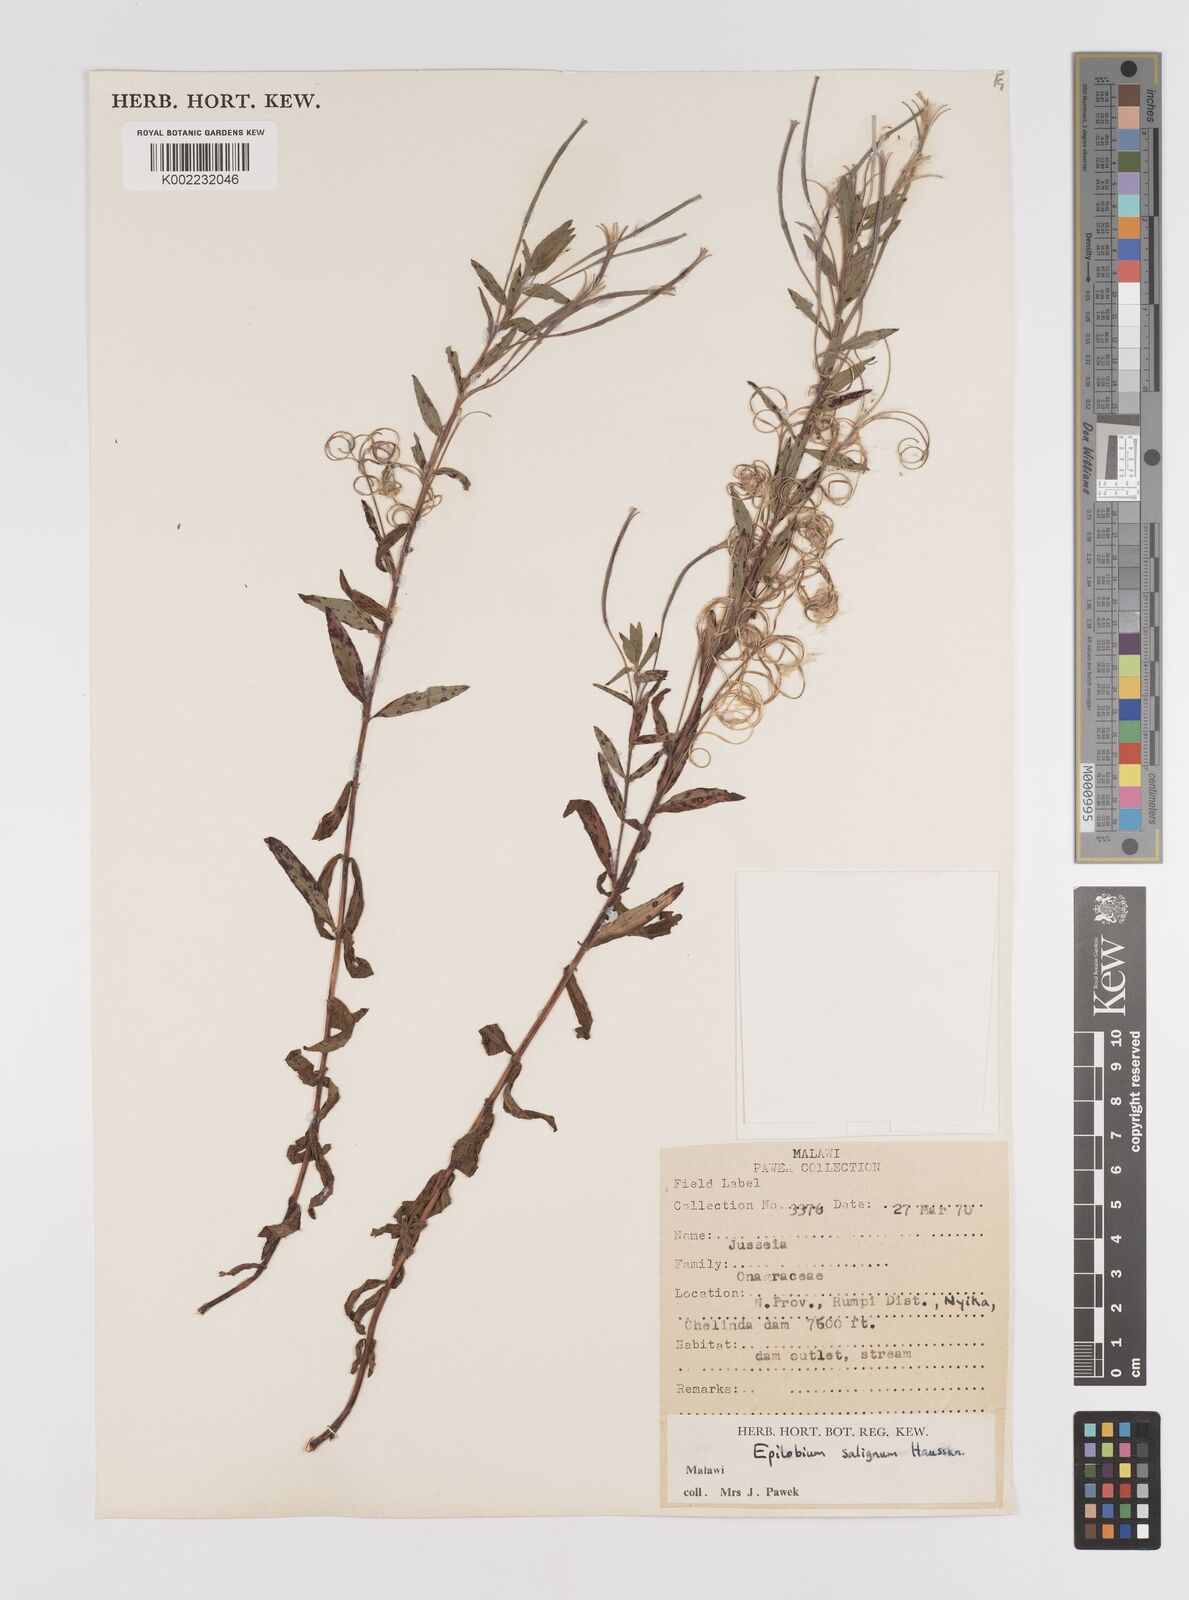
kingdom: Plantae
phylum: Tracheophyta
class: Magnoliopsida
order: Myrtales
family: Onagraceae
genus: Epilobium
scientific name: Epilobium salignum
